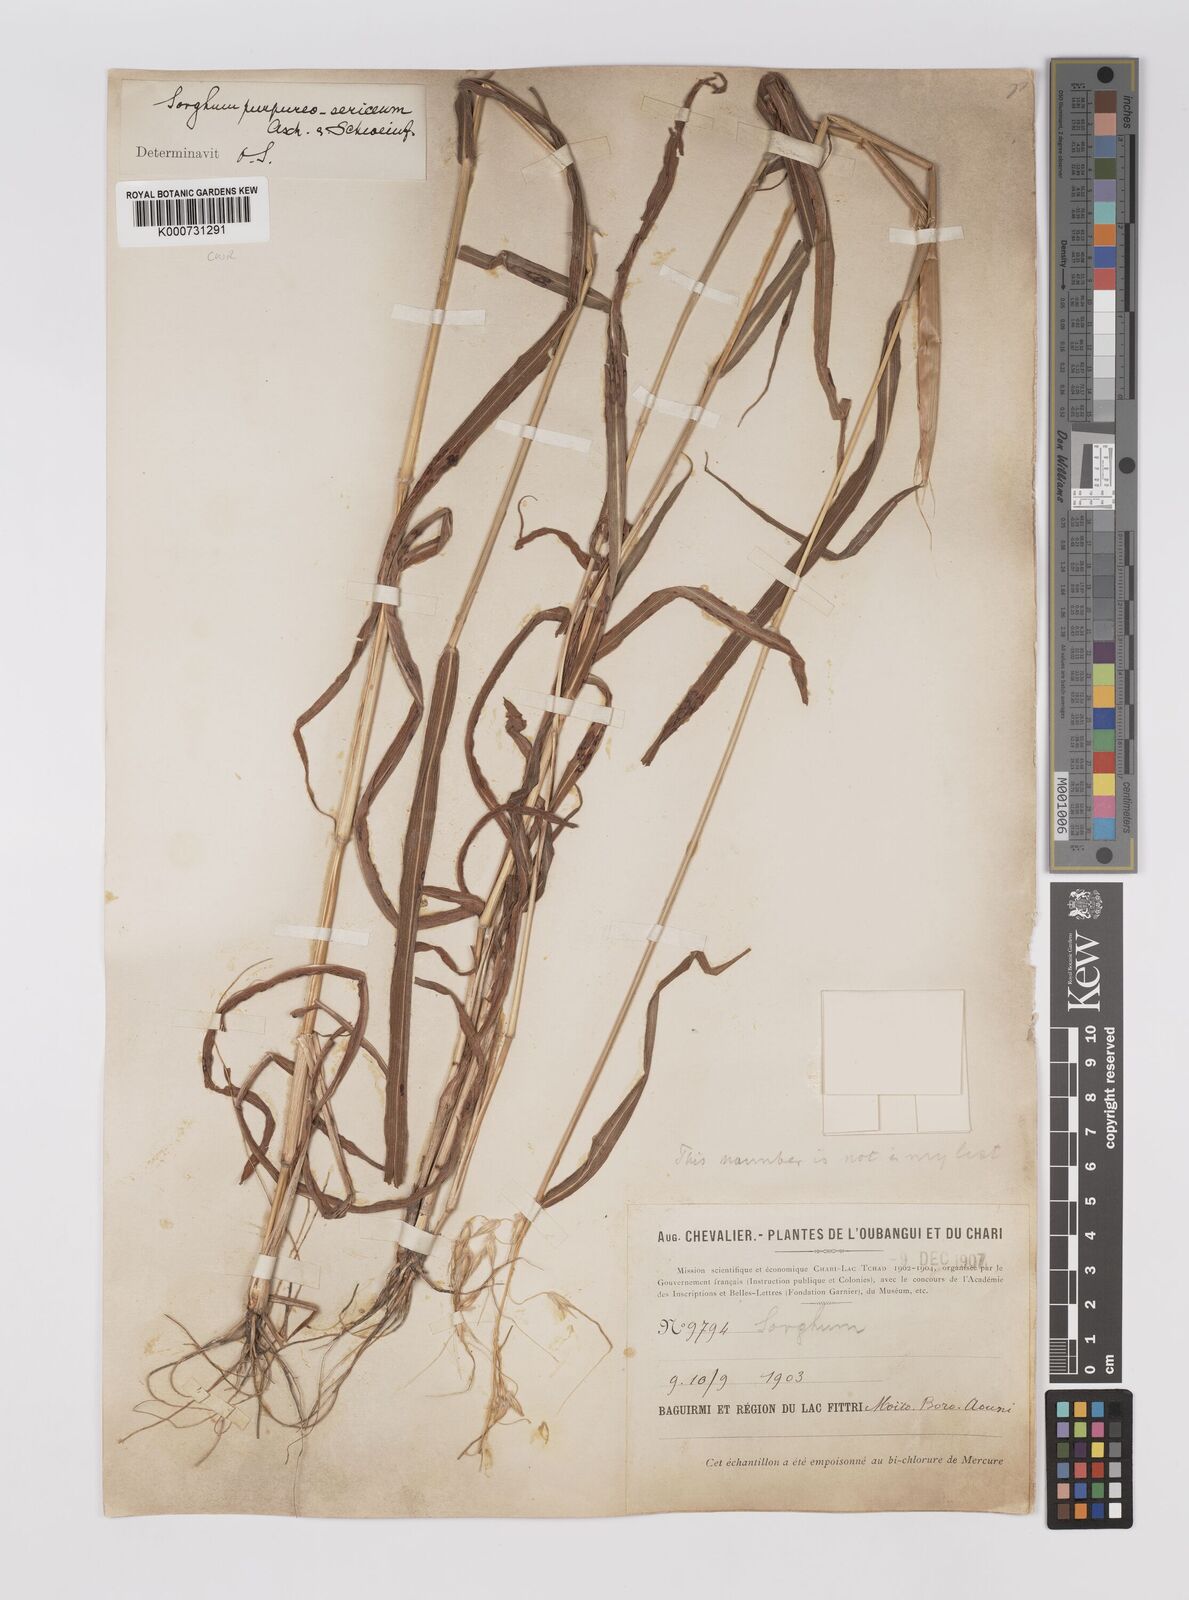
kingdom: Plantae
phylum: Tracheophyta
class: Liliopsida
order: Poales
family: Poaceae
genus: Sorghum
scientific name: Sorghum
